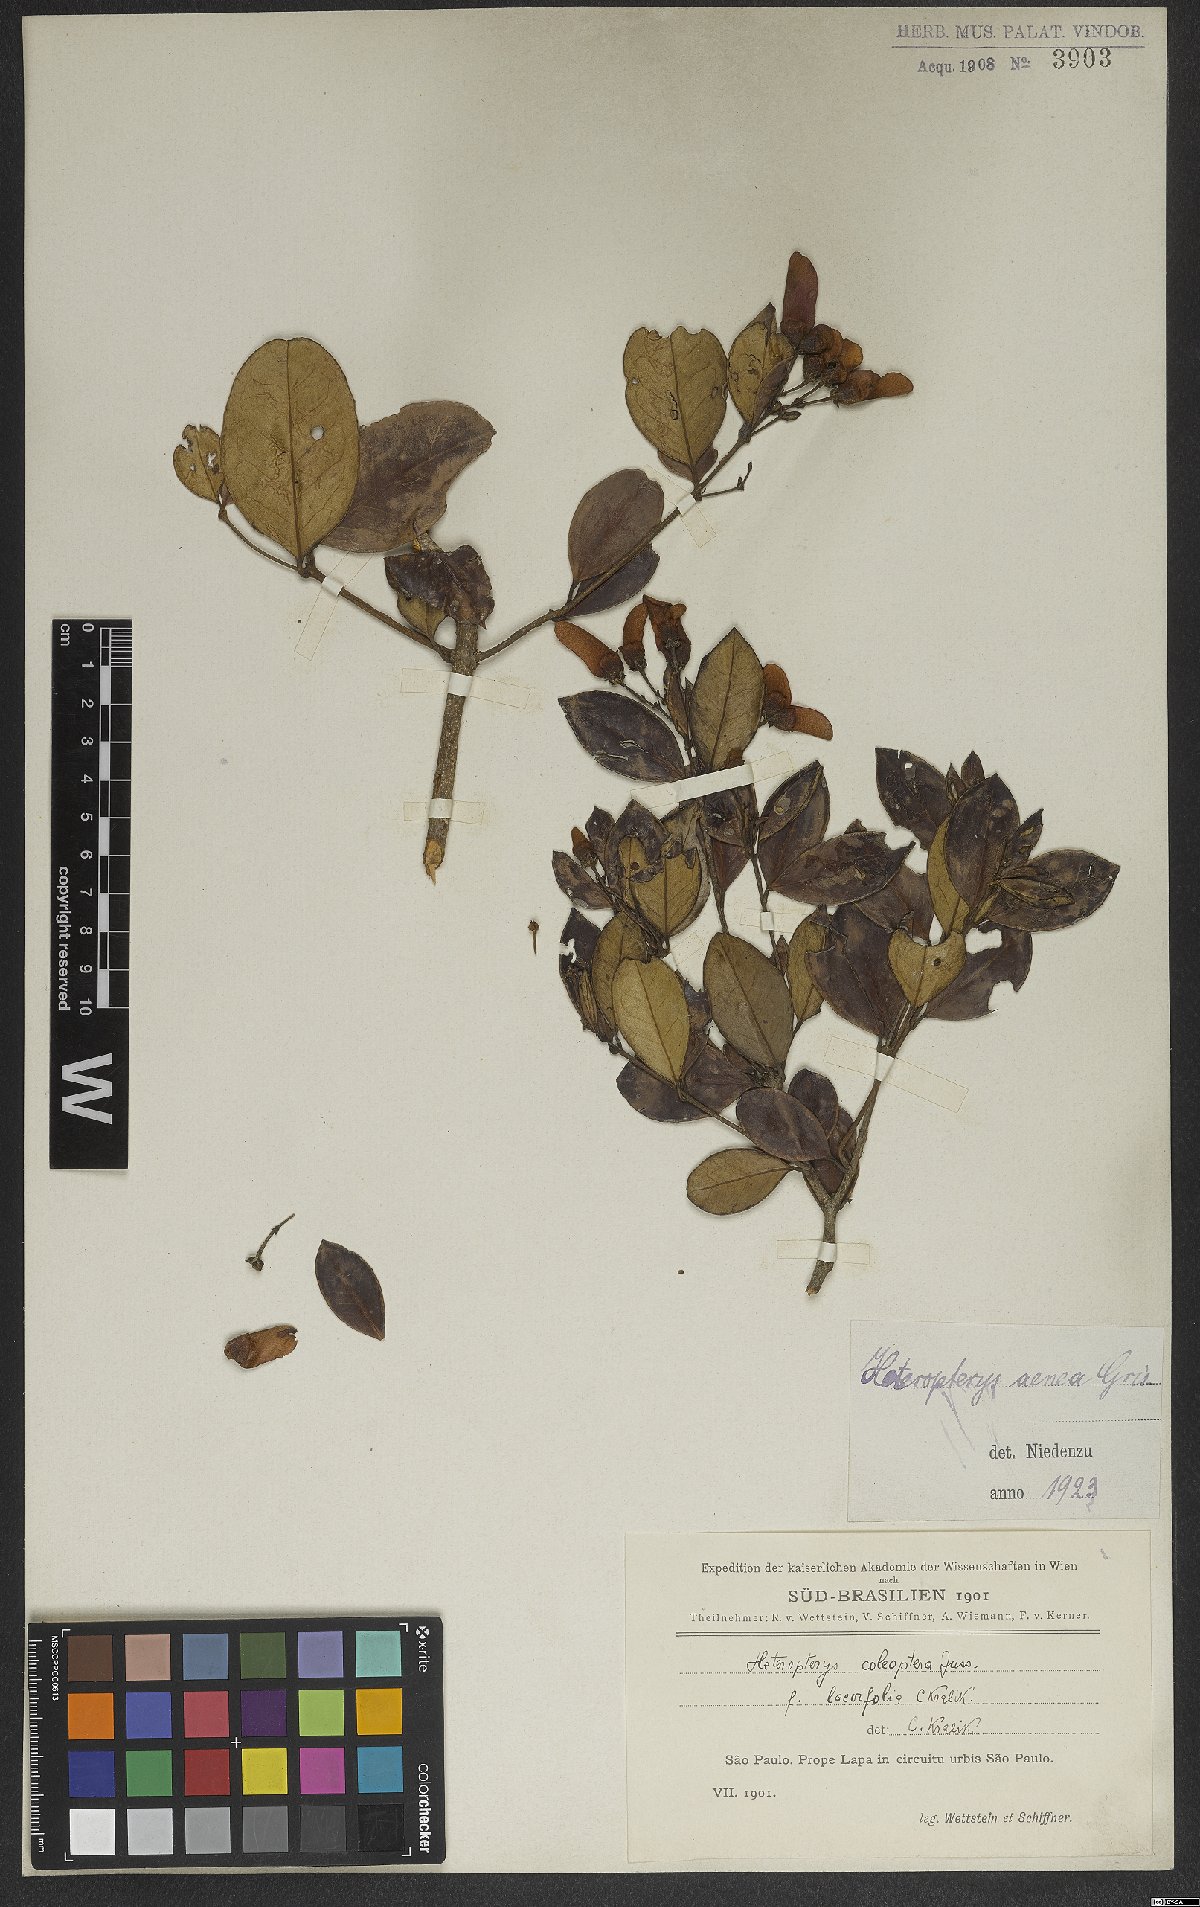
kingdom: Plantae
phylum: Tracheophyta
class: Magnoliopsida
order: Malpighiales
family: Malpighiaceae
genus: Heteropterys
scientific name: Heteropterys aenea
